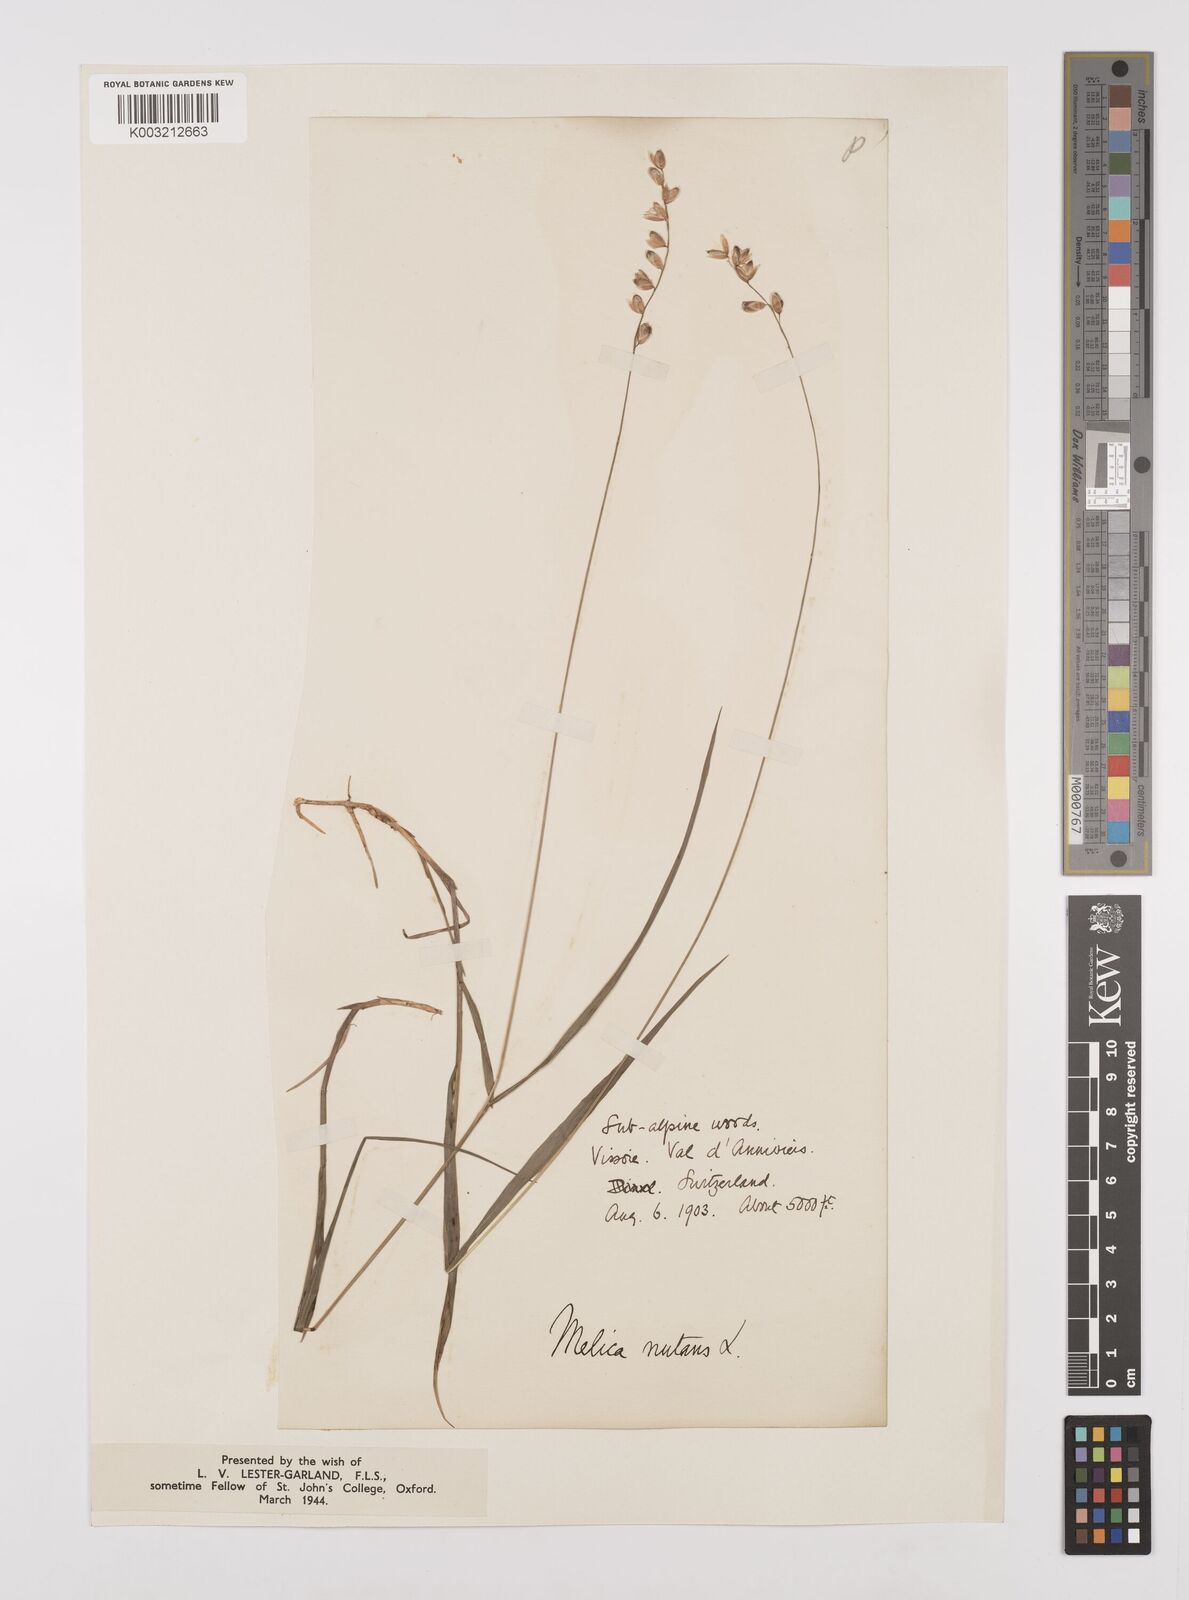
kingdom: Plantae
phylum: Tracheophyta
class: Liliopsida
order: Poales
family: Poaceae
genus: Melica
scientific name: Melica
